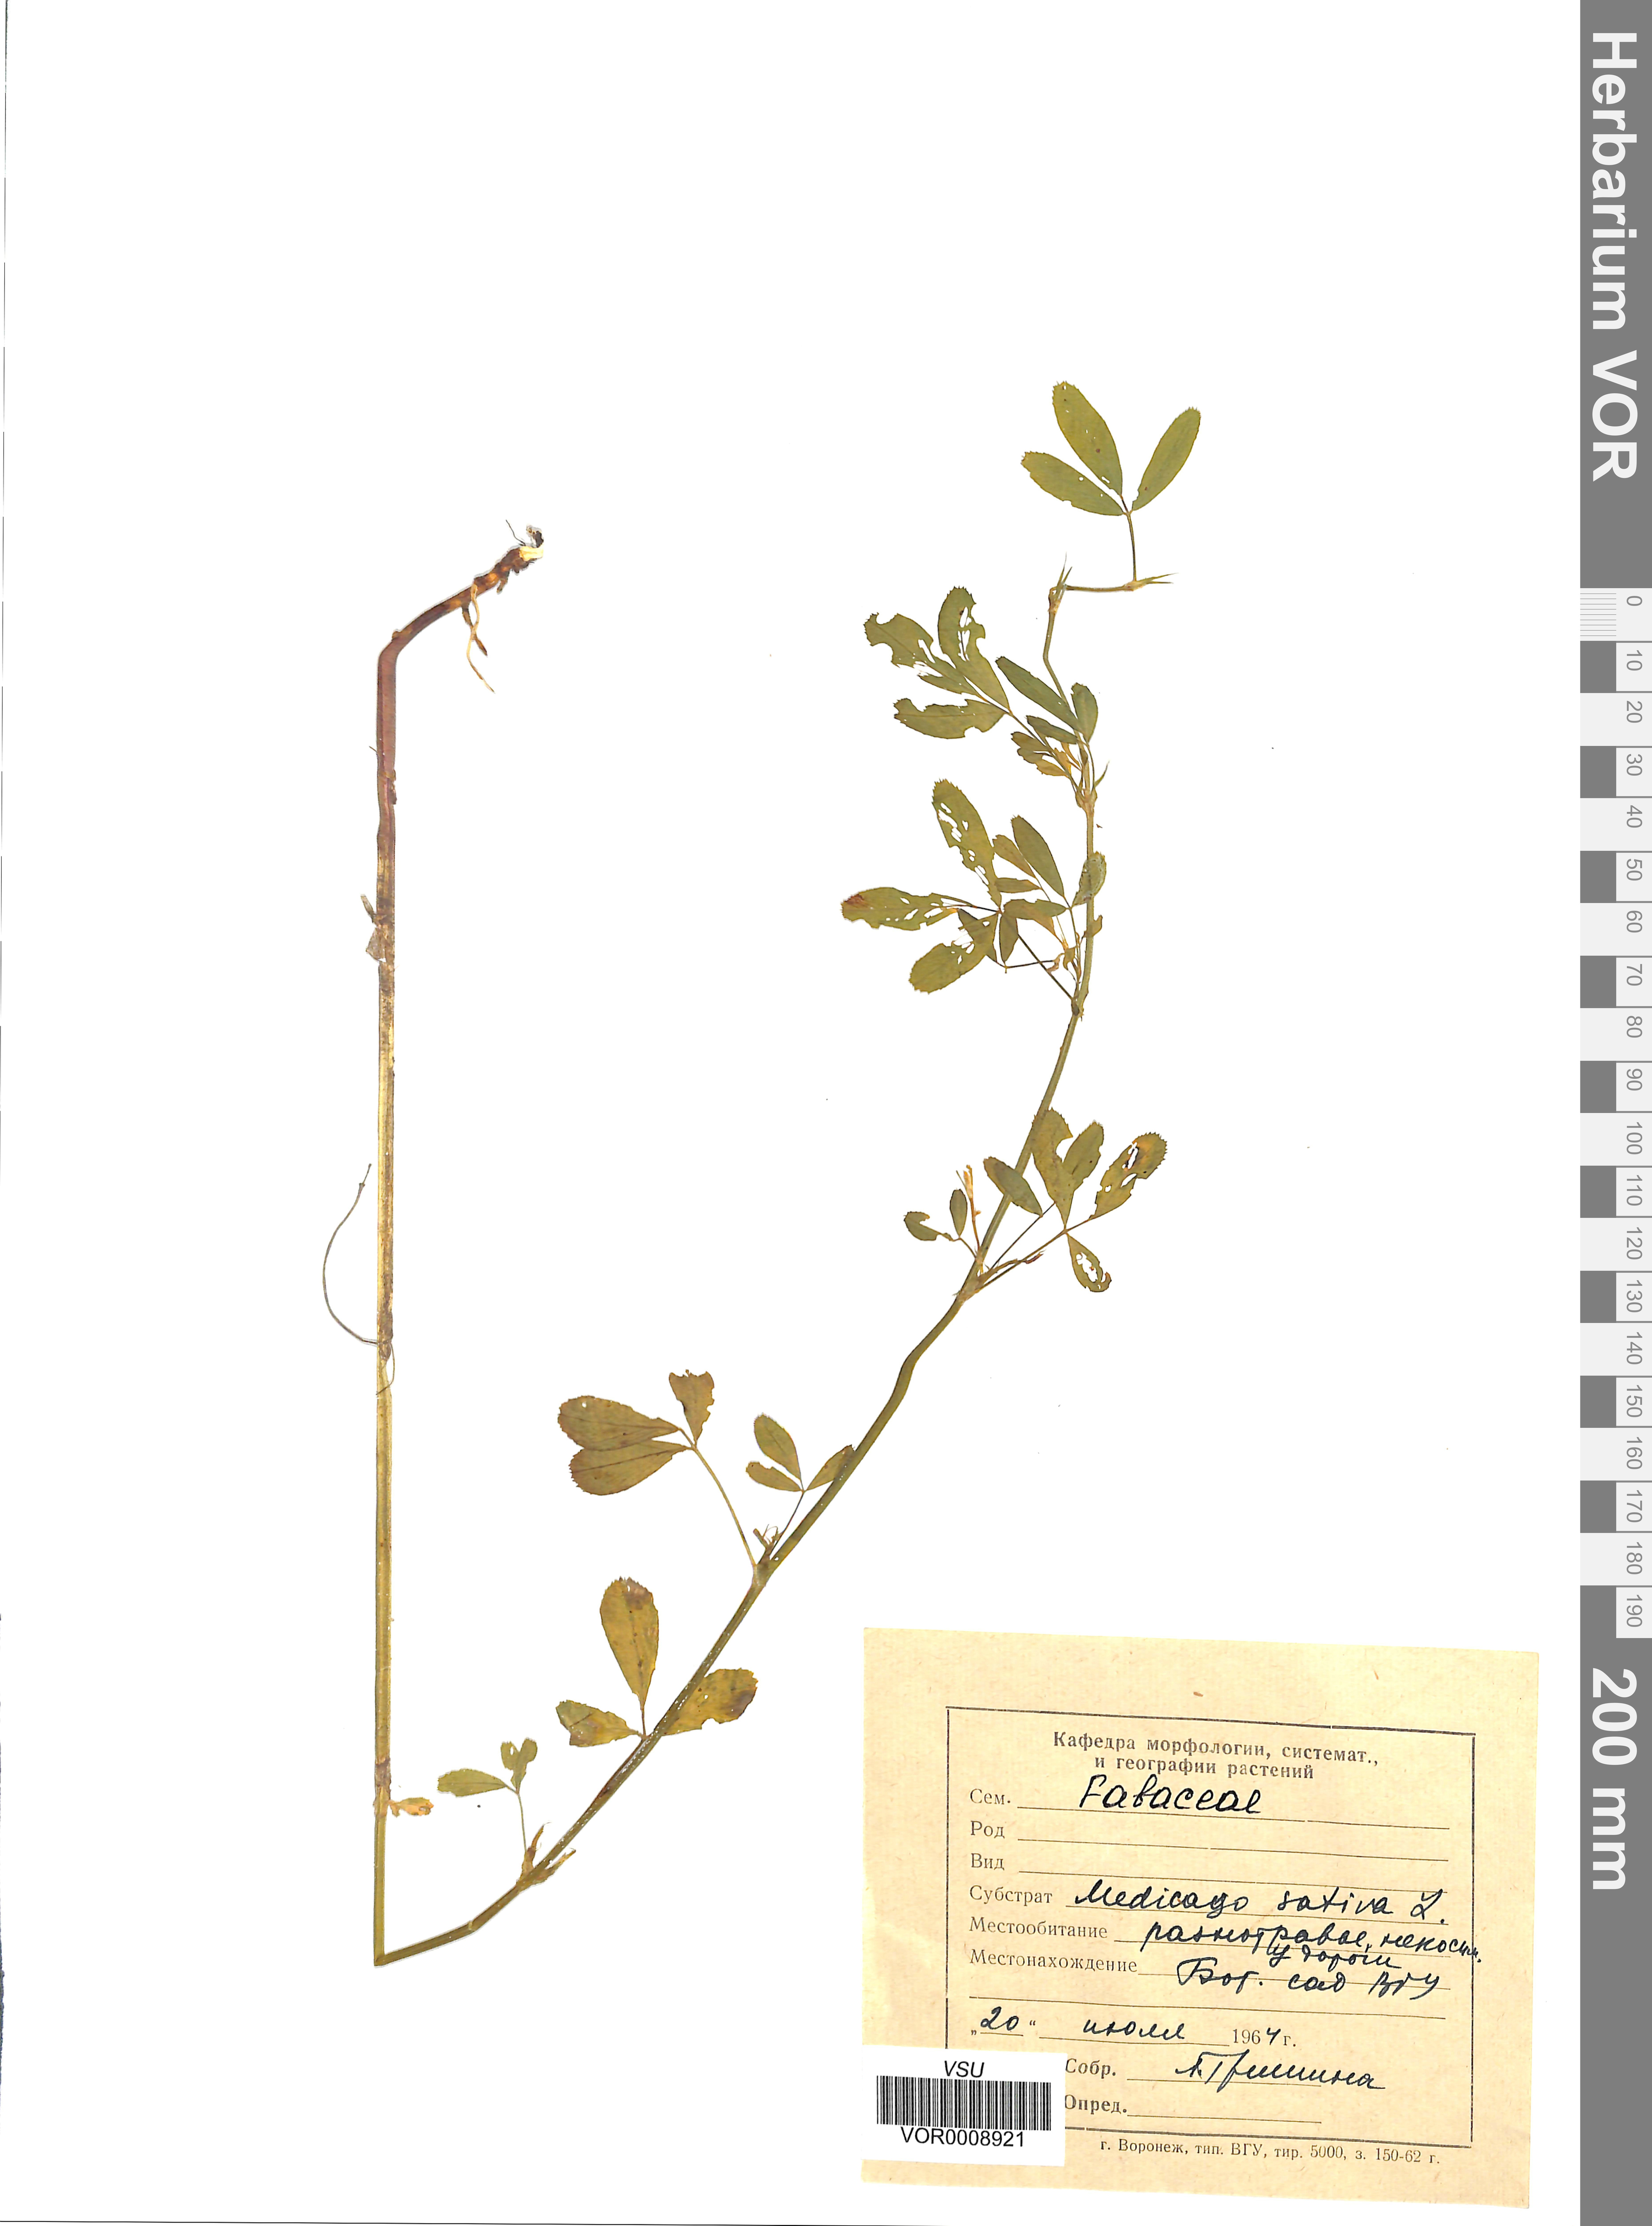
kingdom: Plantae
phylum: Tracheophyta
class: Magnoliopsida
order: Fabales
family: Fabaceae
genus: Medicago
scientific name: Medicago sativa
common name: Alfalfa
